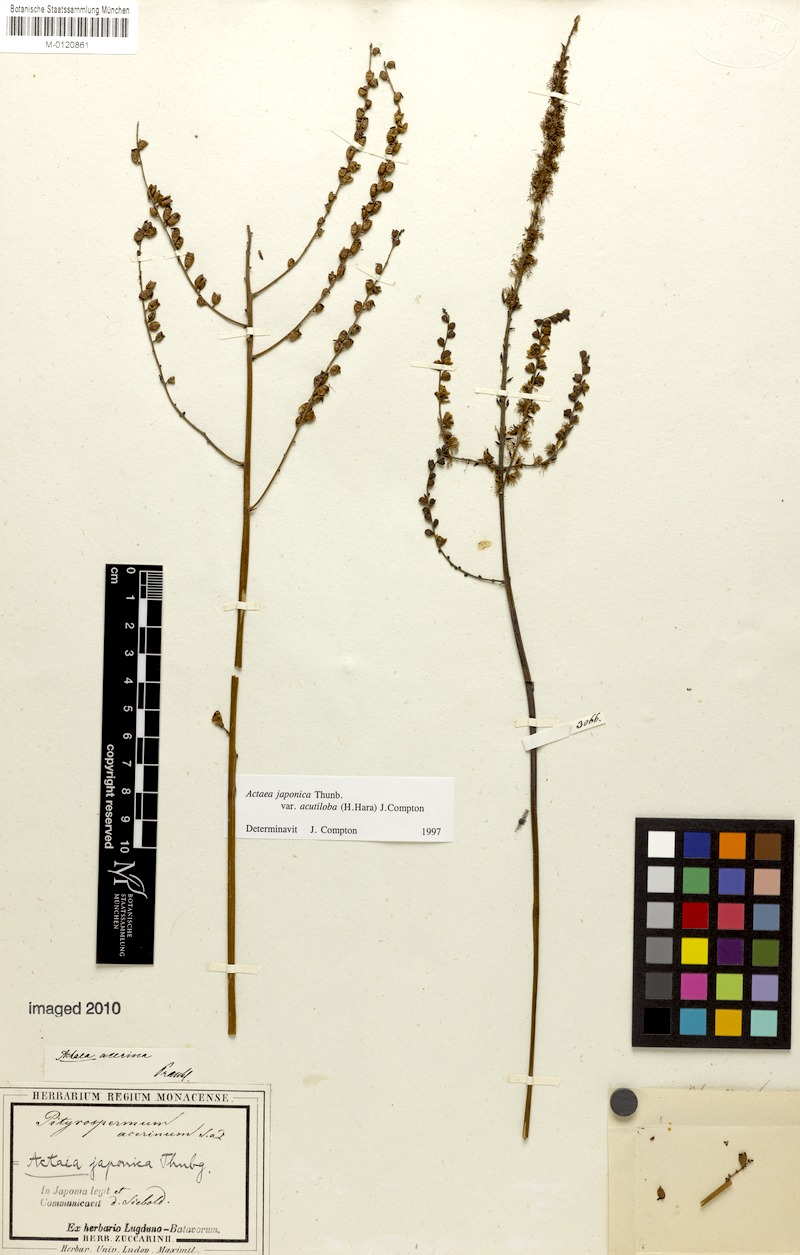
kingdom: Plantae
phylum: Tracheophyta
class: Magnoliopsida
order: Ranunculales
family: Ranunculaceae
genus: Actaea
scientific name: Actaea japonica
